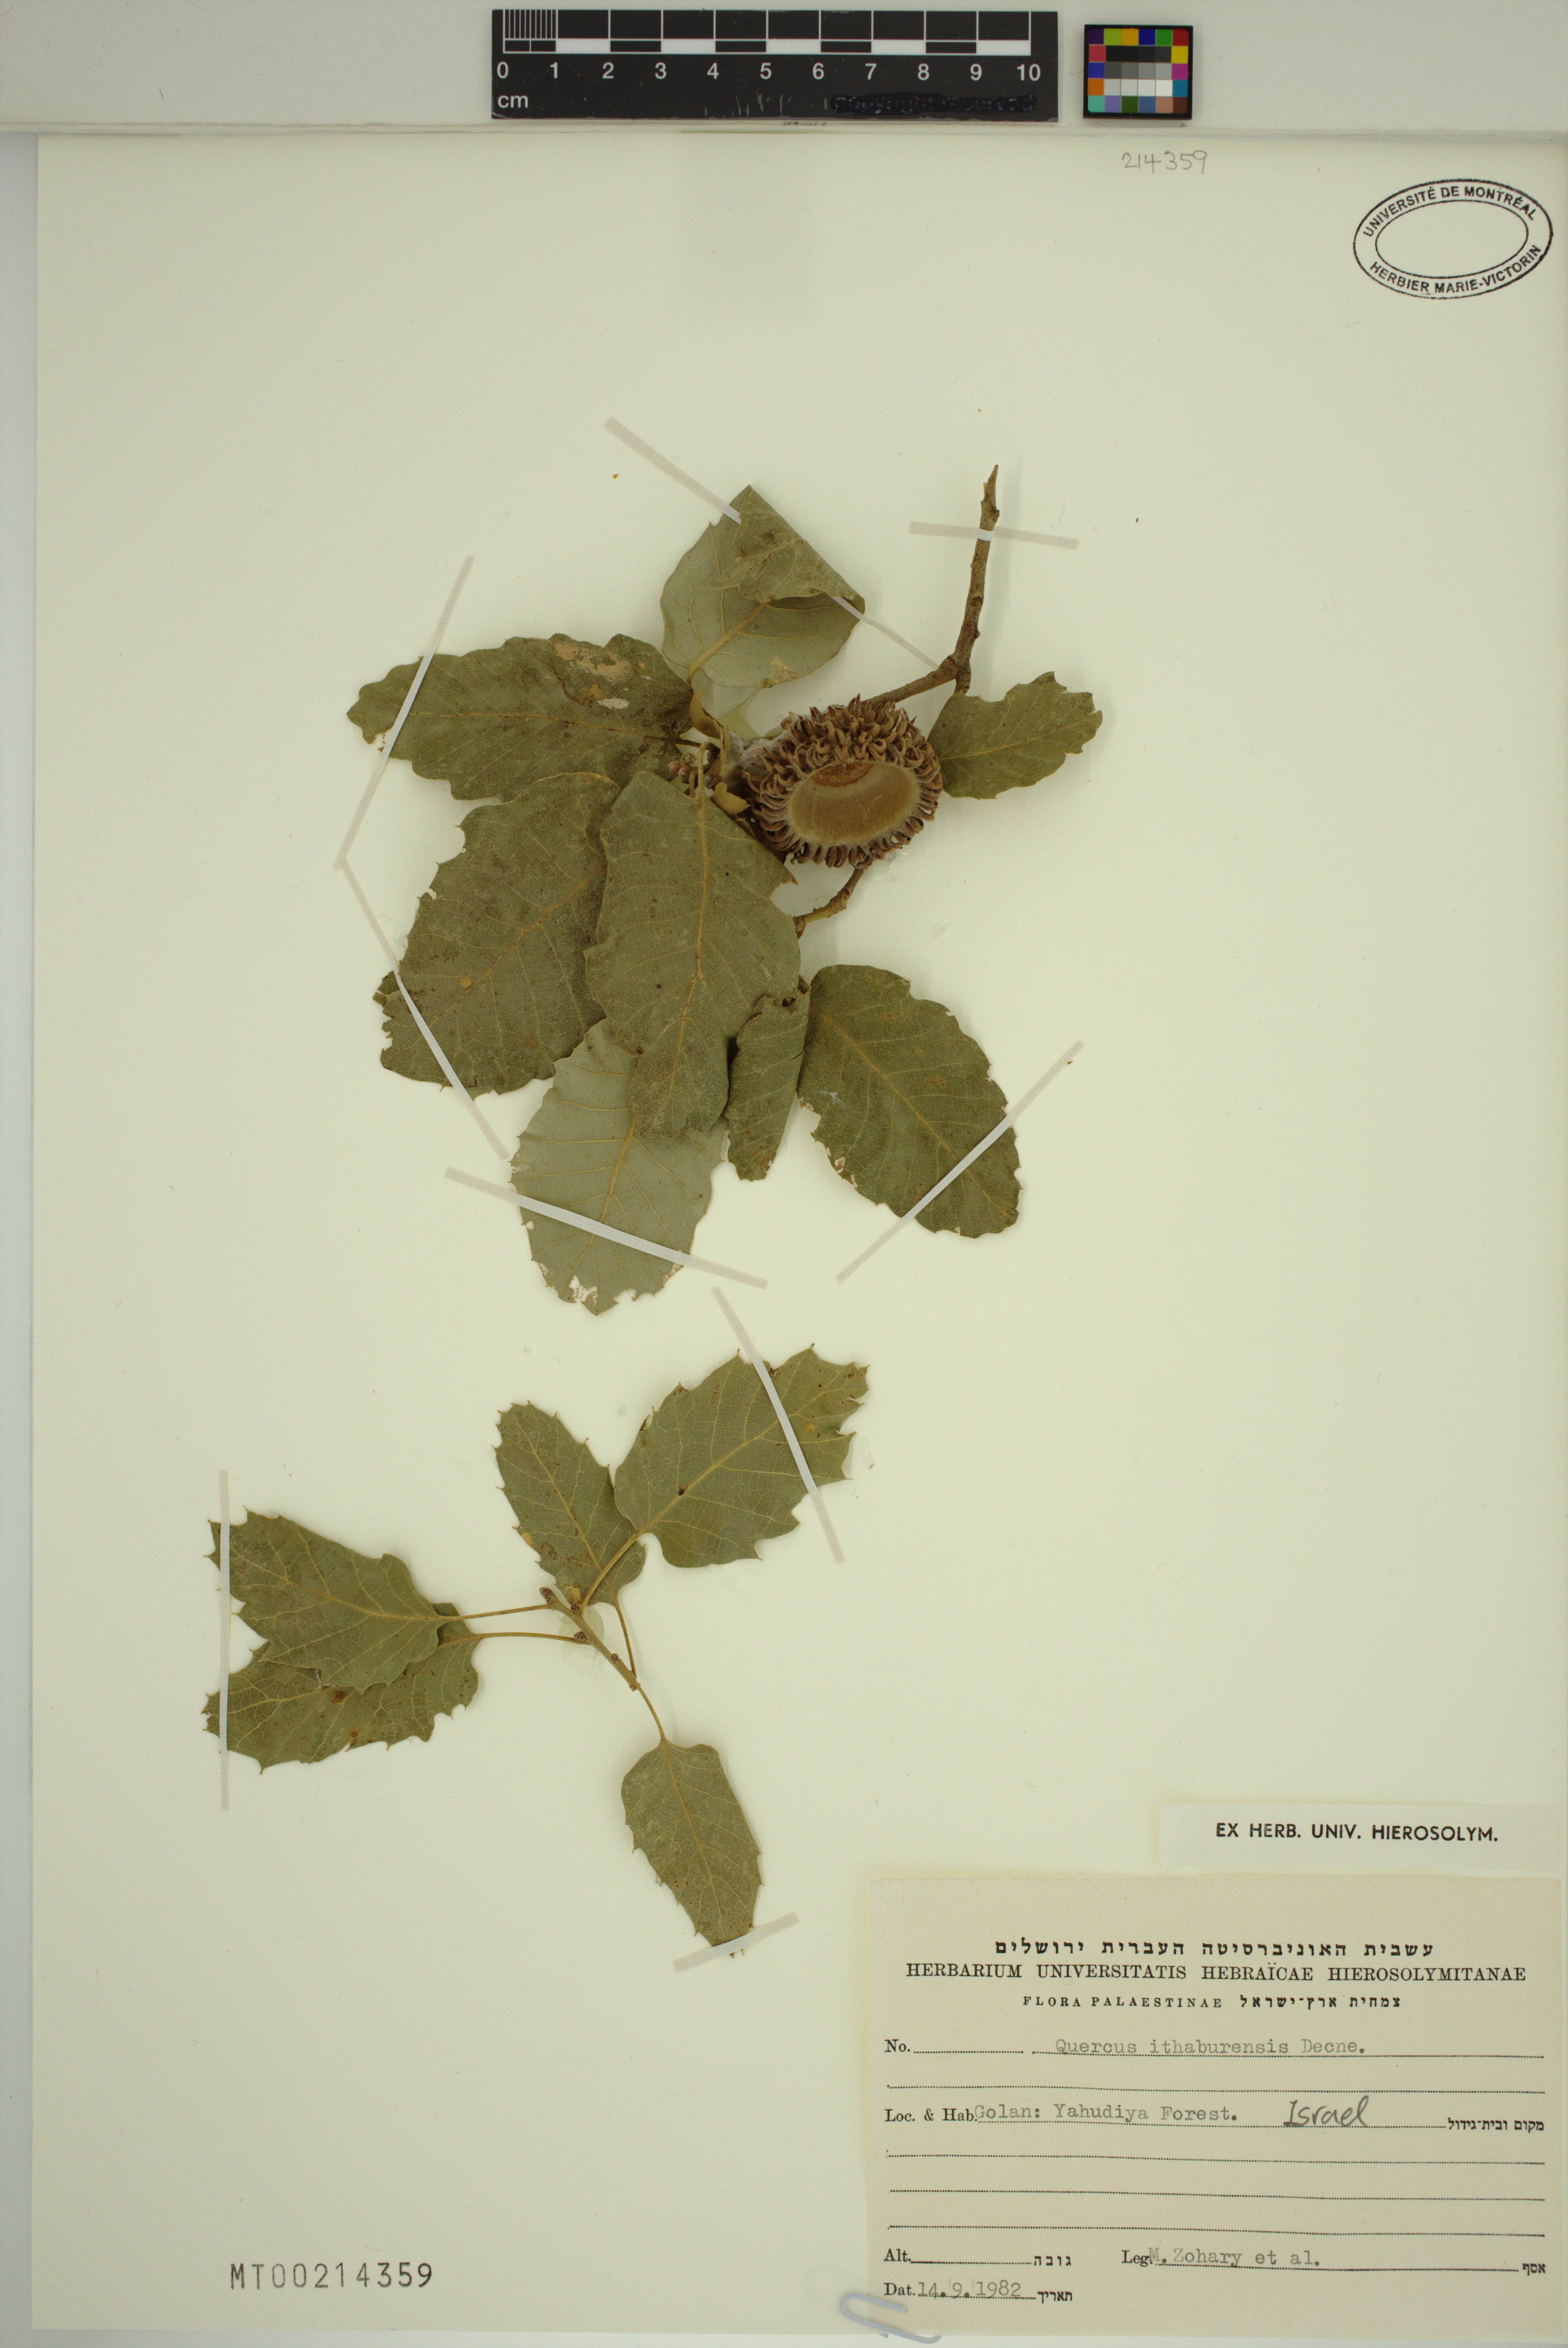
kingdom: Plantae
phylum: Tracheophyta
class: Magnoliopsida
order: Fagales
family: Fagaceae
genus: Quercus
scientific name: Quercus ithaburensis
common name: Tabor oak
